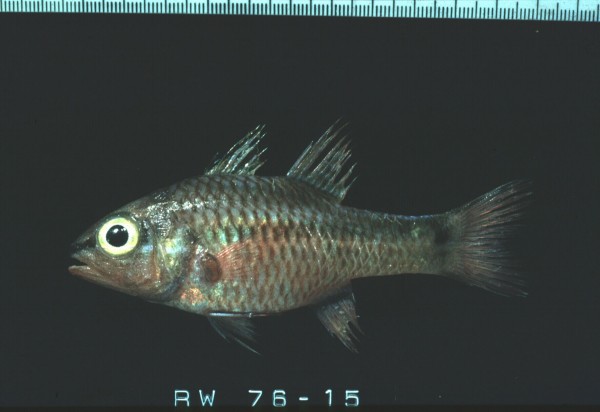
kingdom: Animalia
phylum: Chordata
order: Perciformes
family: Apogonidae
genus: Pristiapogon
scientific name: Pristiapogon kallopterus
